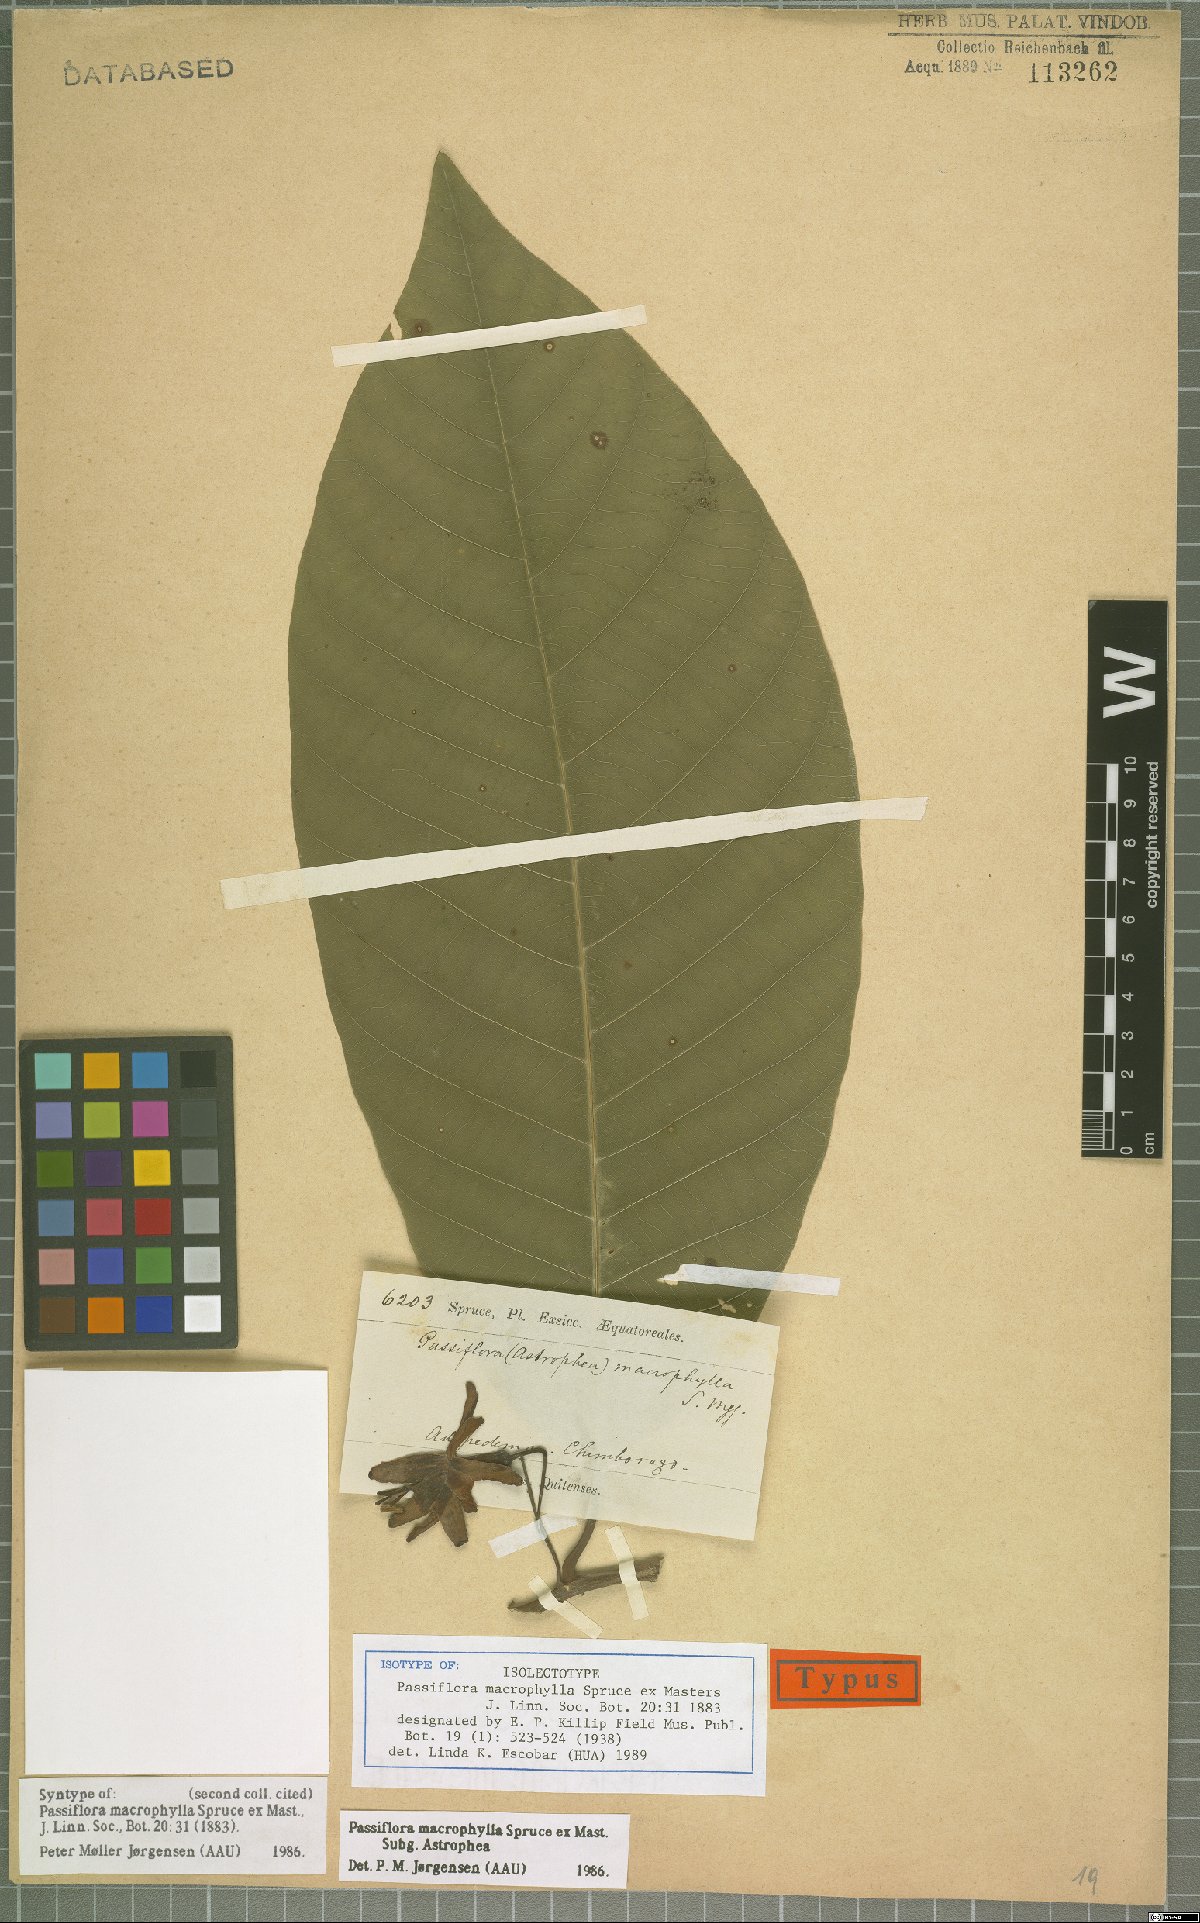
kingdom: Plantae
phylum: Tracheophyta
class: Magnoliopsida
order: Malpighiales
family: Passifloraceae
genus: Passiflora
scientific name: Passiflora macrophylla
